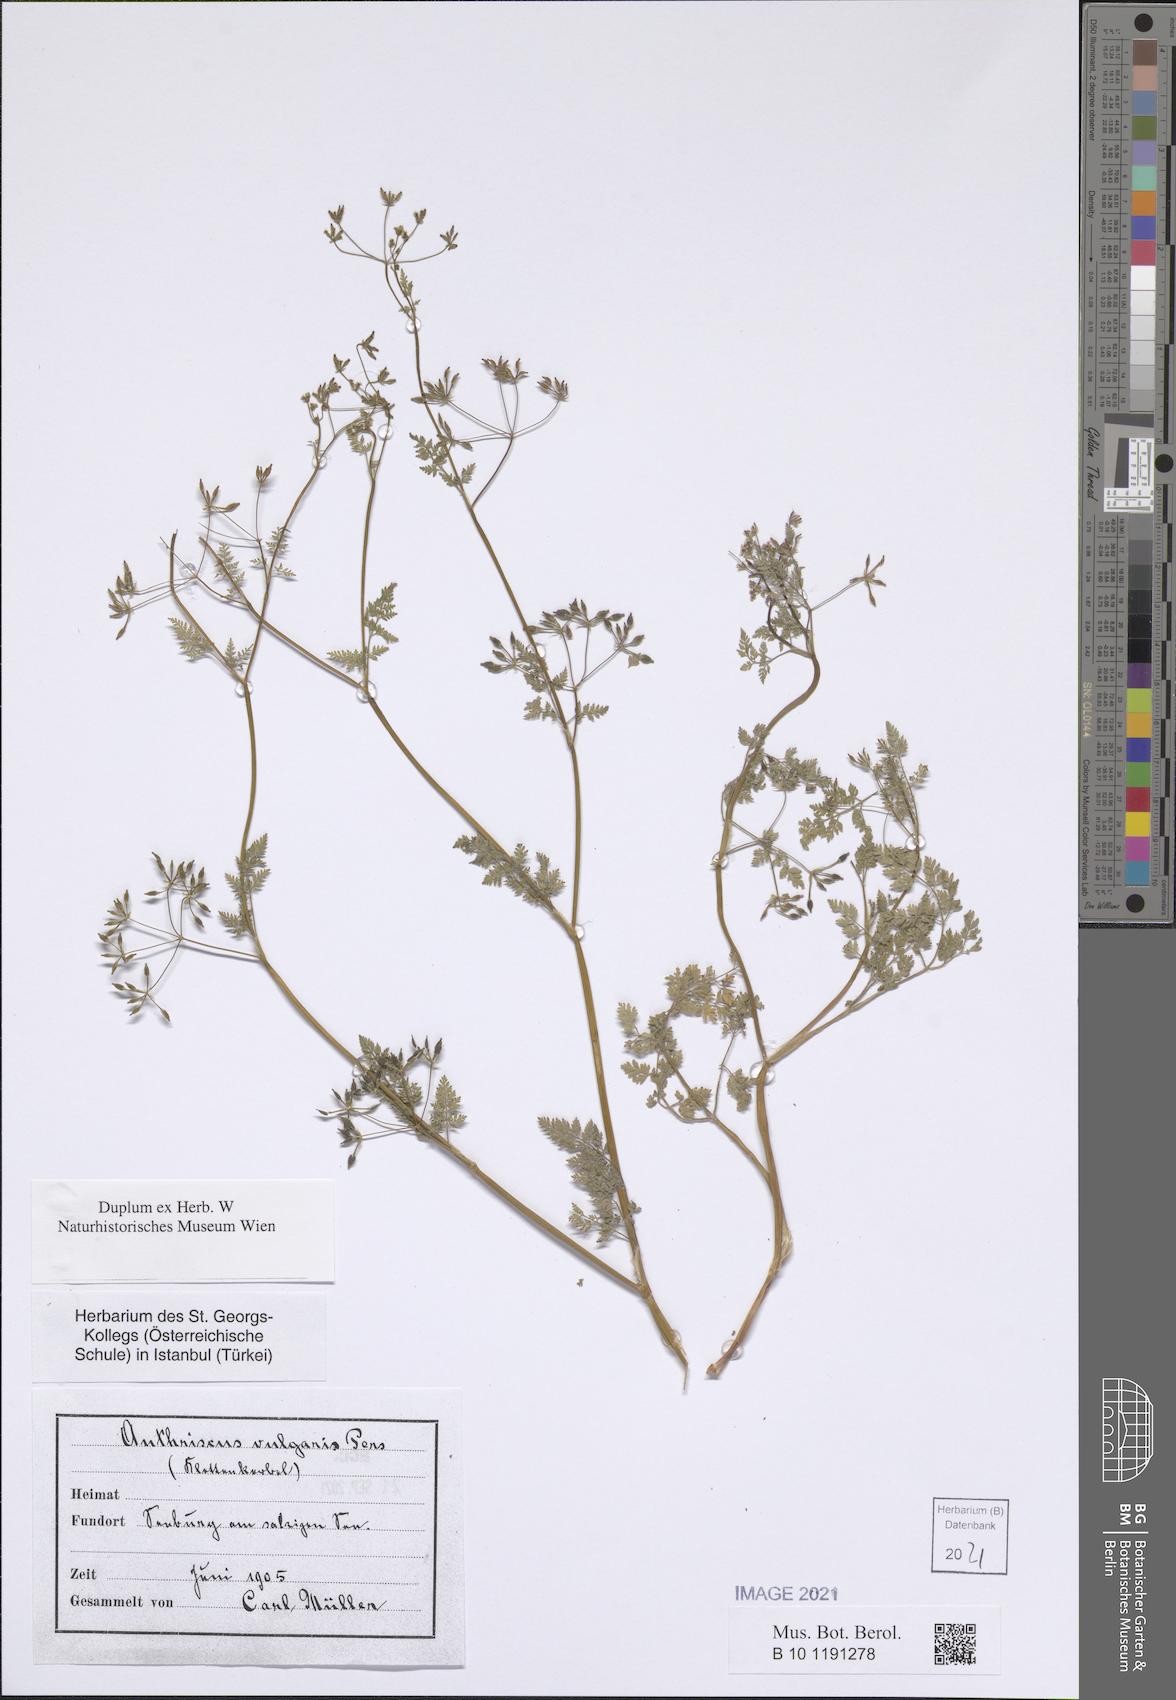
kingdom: Plantae
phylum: Tracheophyta
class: Magnoliopsida
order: Apiales
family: Apiaceae
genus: Anthriscus
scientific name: Anthriscus caucalis
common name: Bur chervil
